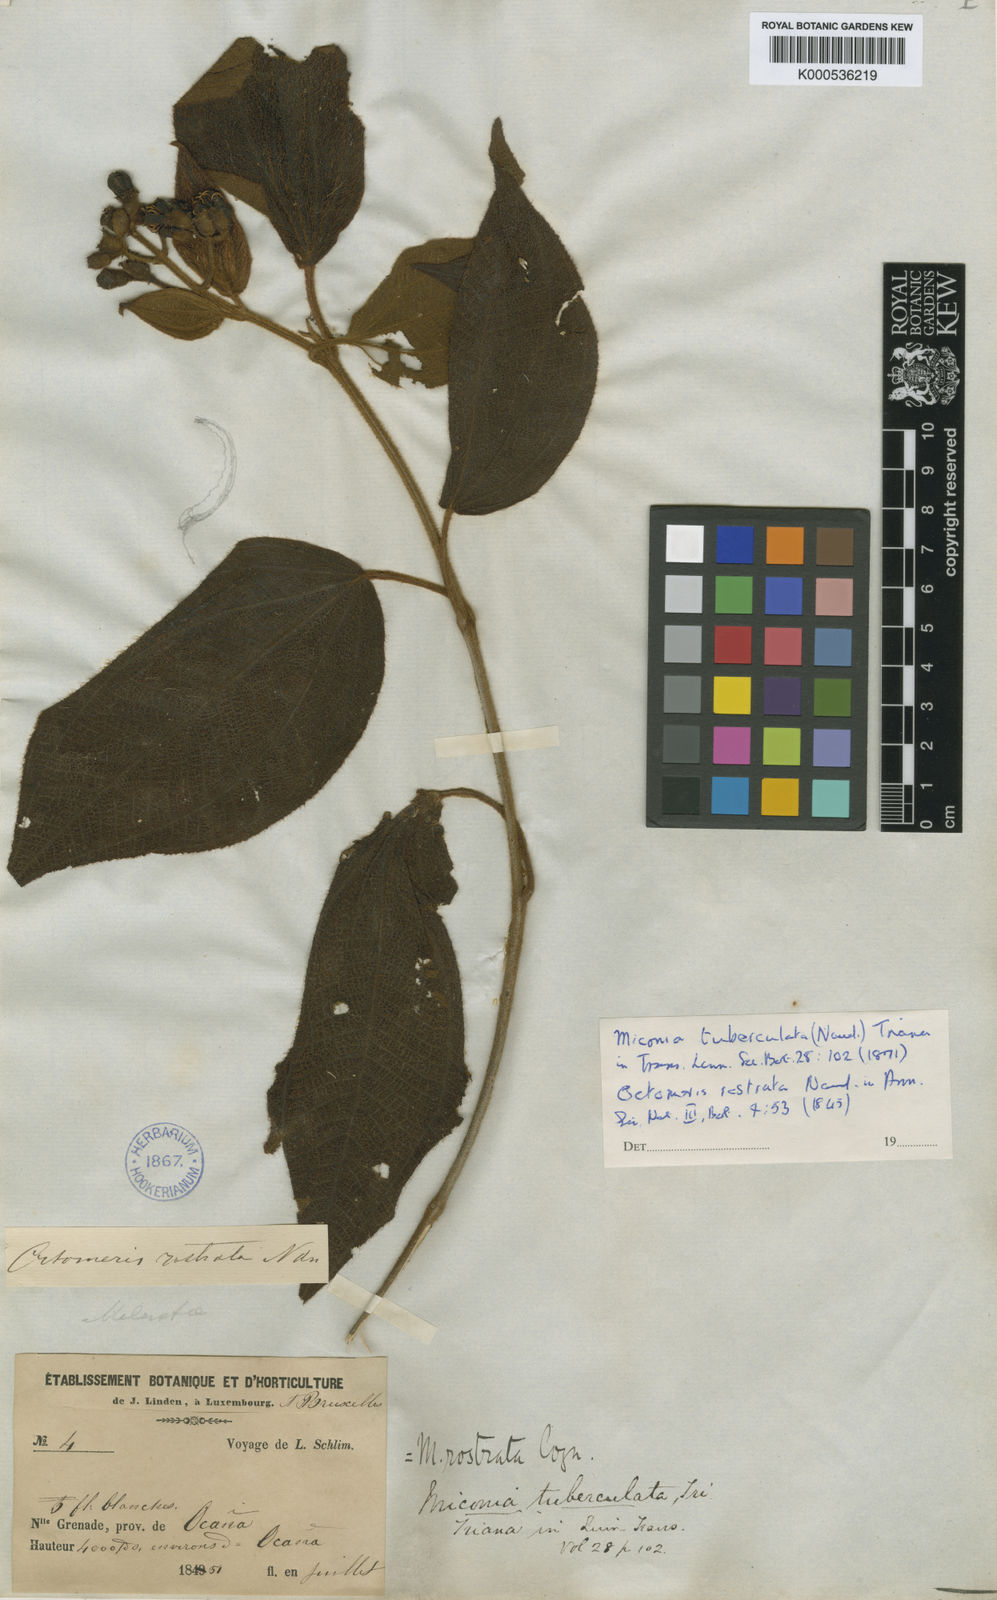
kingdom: Plantae
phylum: Tracheophyta
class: Magnoliopsida
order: Myrtales
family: Melastomataceae
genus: Miconia
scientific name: Miconia tuberculata
